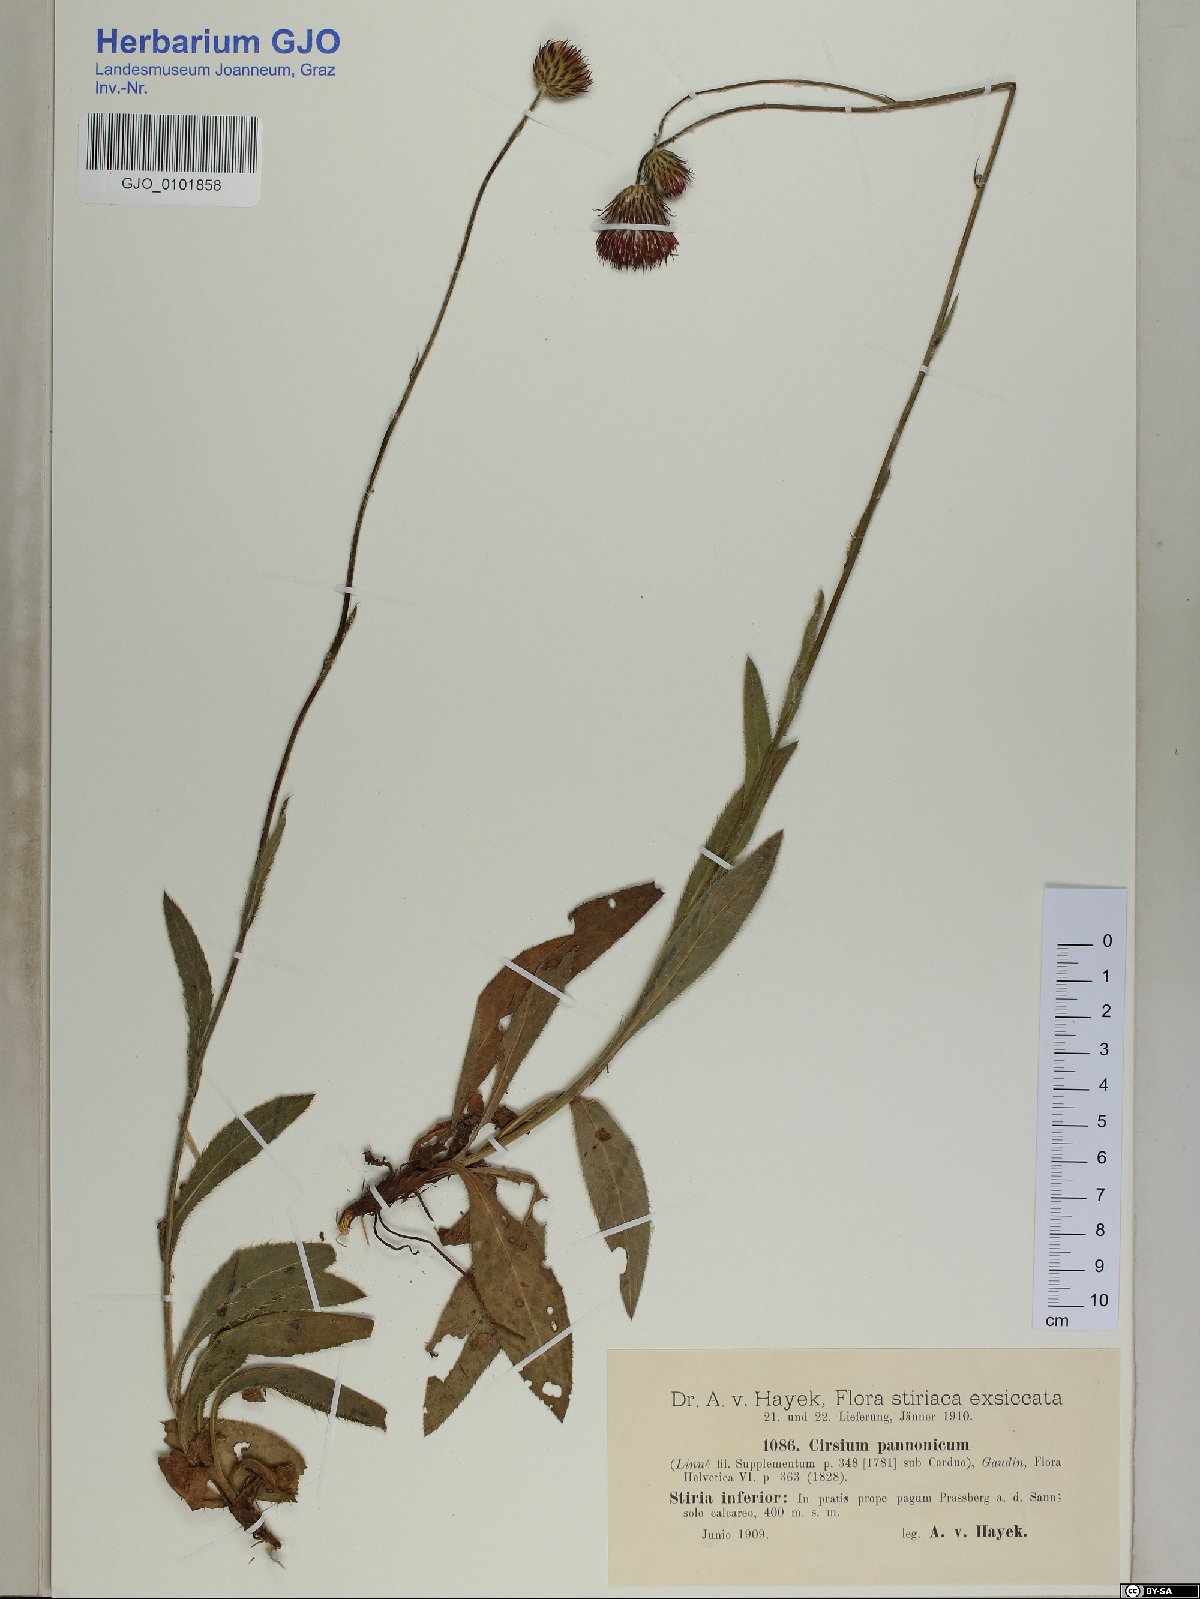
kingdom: Plantae
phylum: Tracheophyta
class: Magnoliopsida
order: Asterales
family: Asteraceae
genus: Cirsium
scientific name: Cirsium pannonicum
